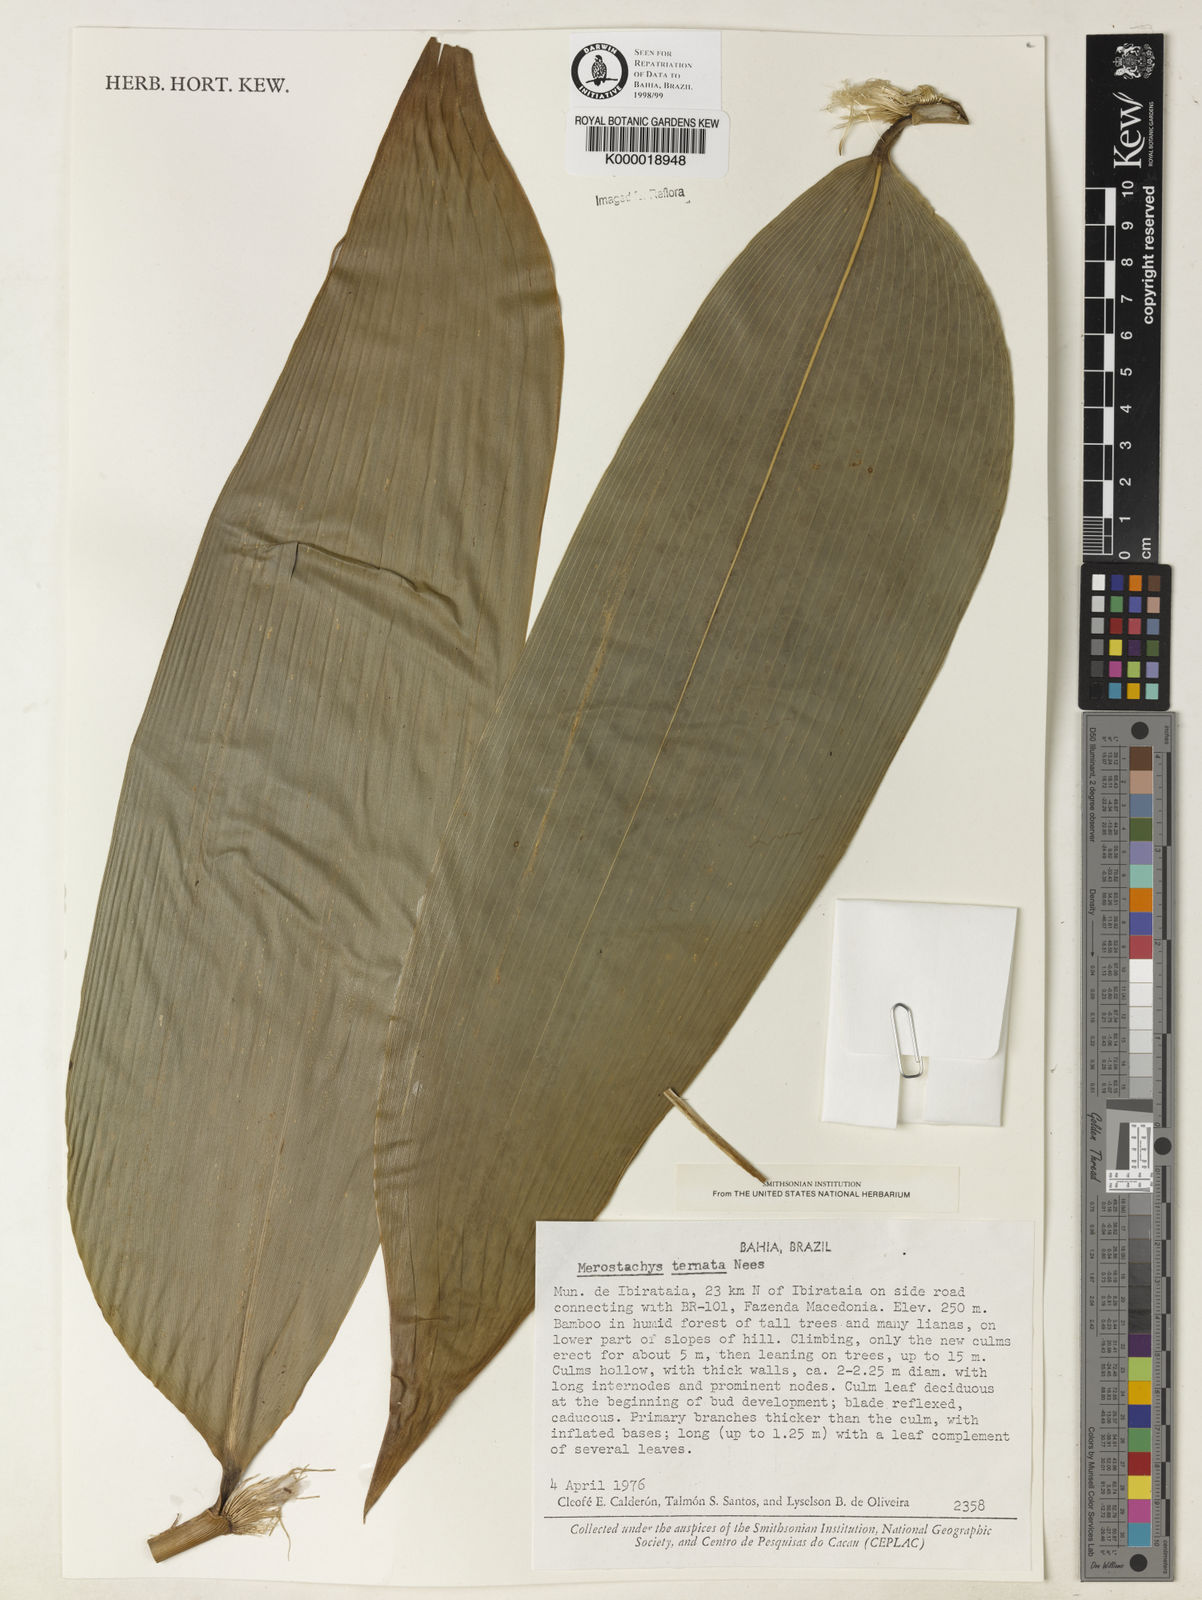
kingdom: Plantae
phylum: Tracheophyta
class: Liliopsida
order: Poales
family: Poaceae
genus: Merostachys
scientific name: Merostachys ternata
